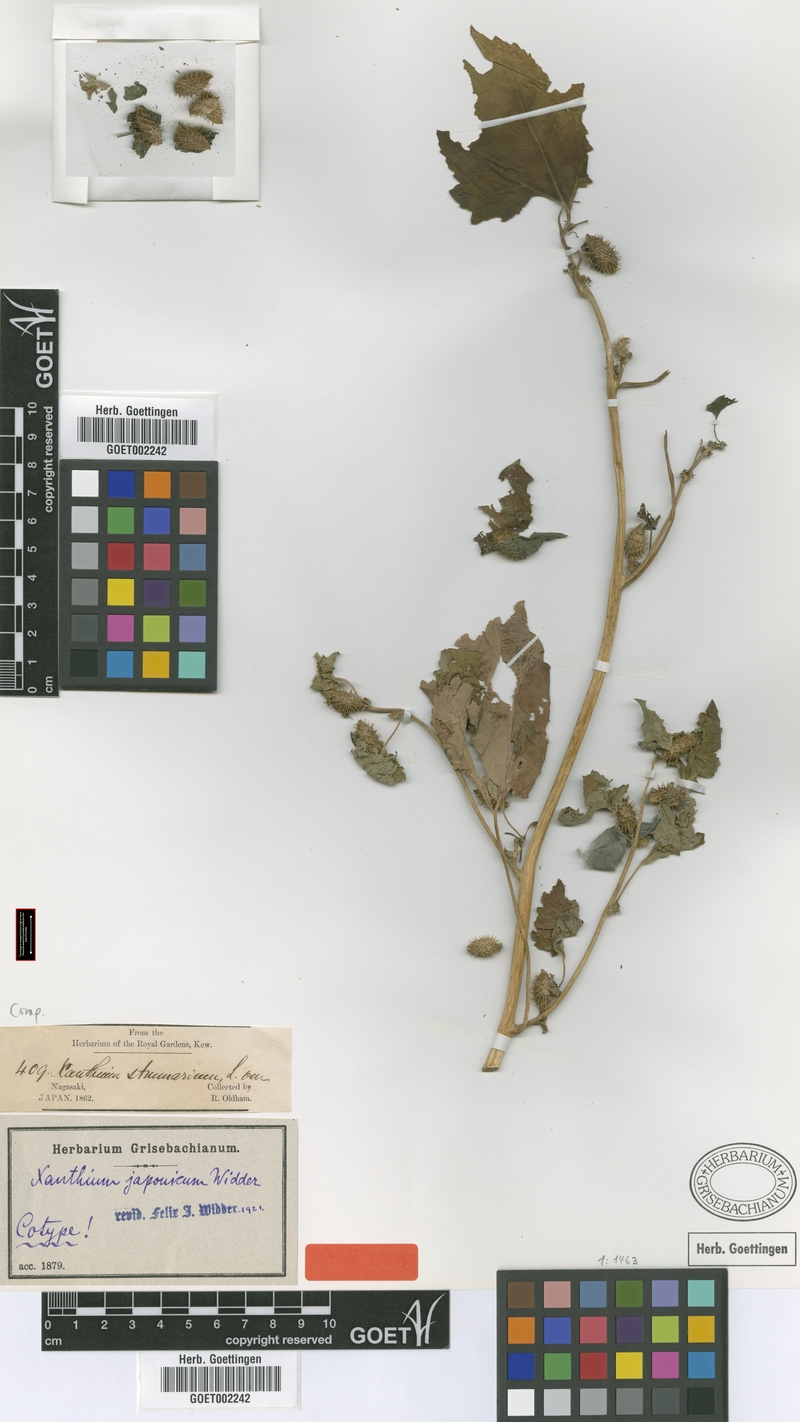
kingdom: Plantae
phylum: Tracheophyta
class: Magnoliopsida
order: Asterales
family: Asteraceae
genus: Xanthium
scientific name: Xanthium strumarium
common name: Rough cocklebur
